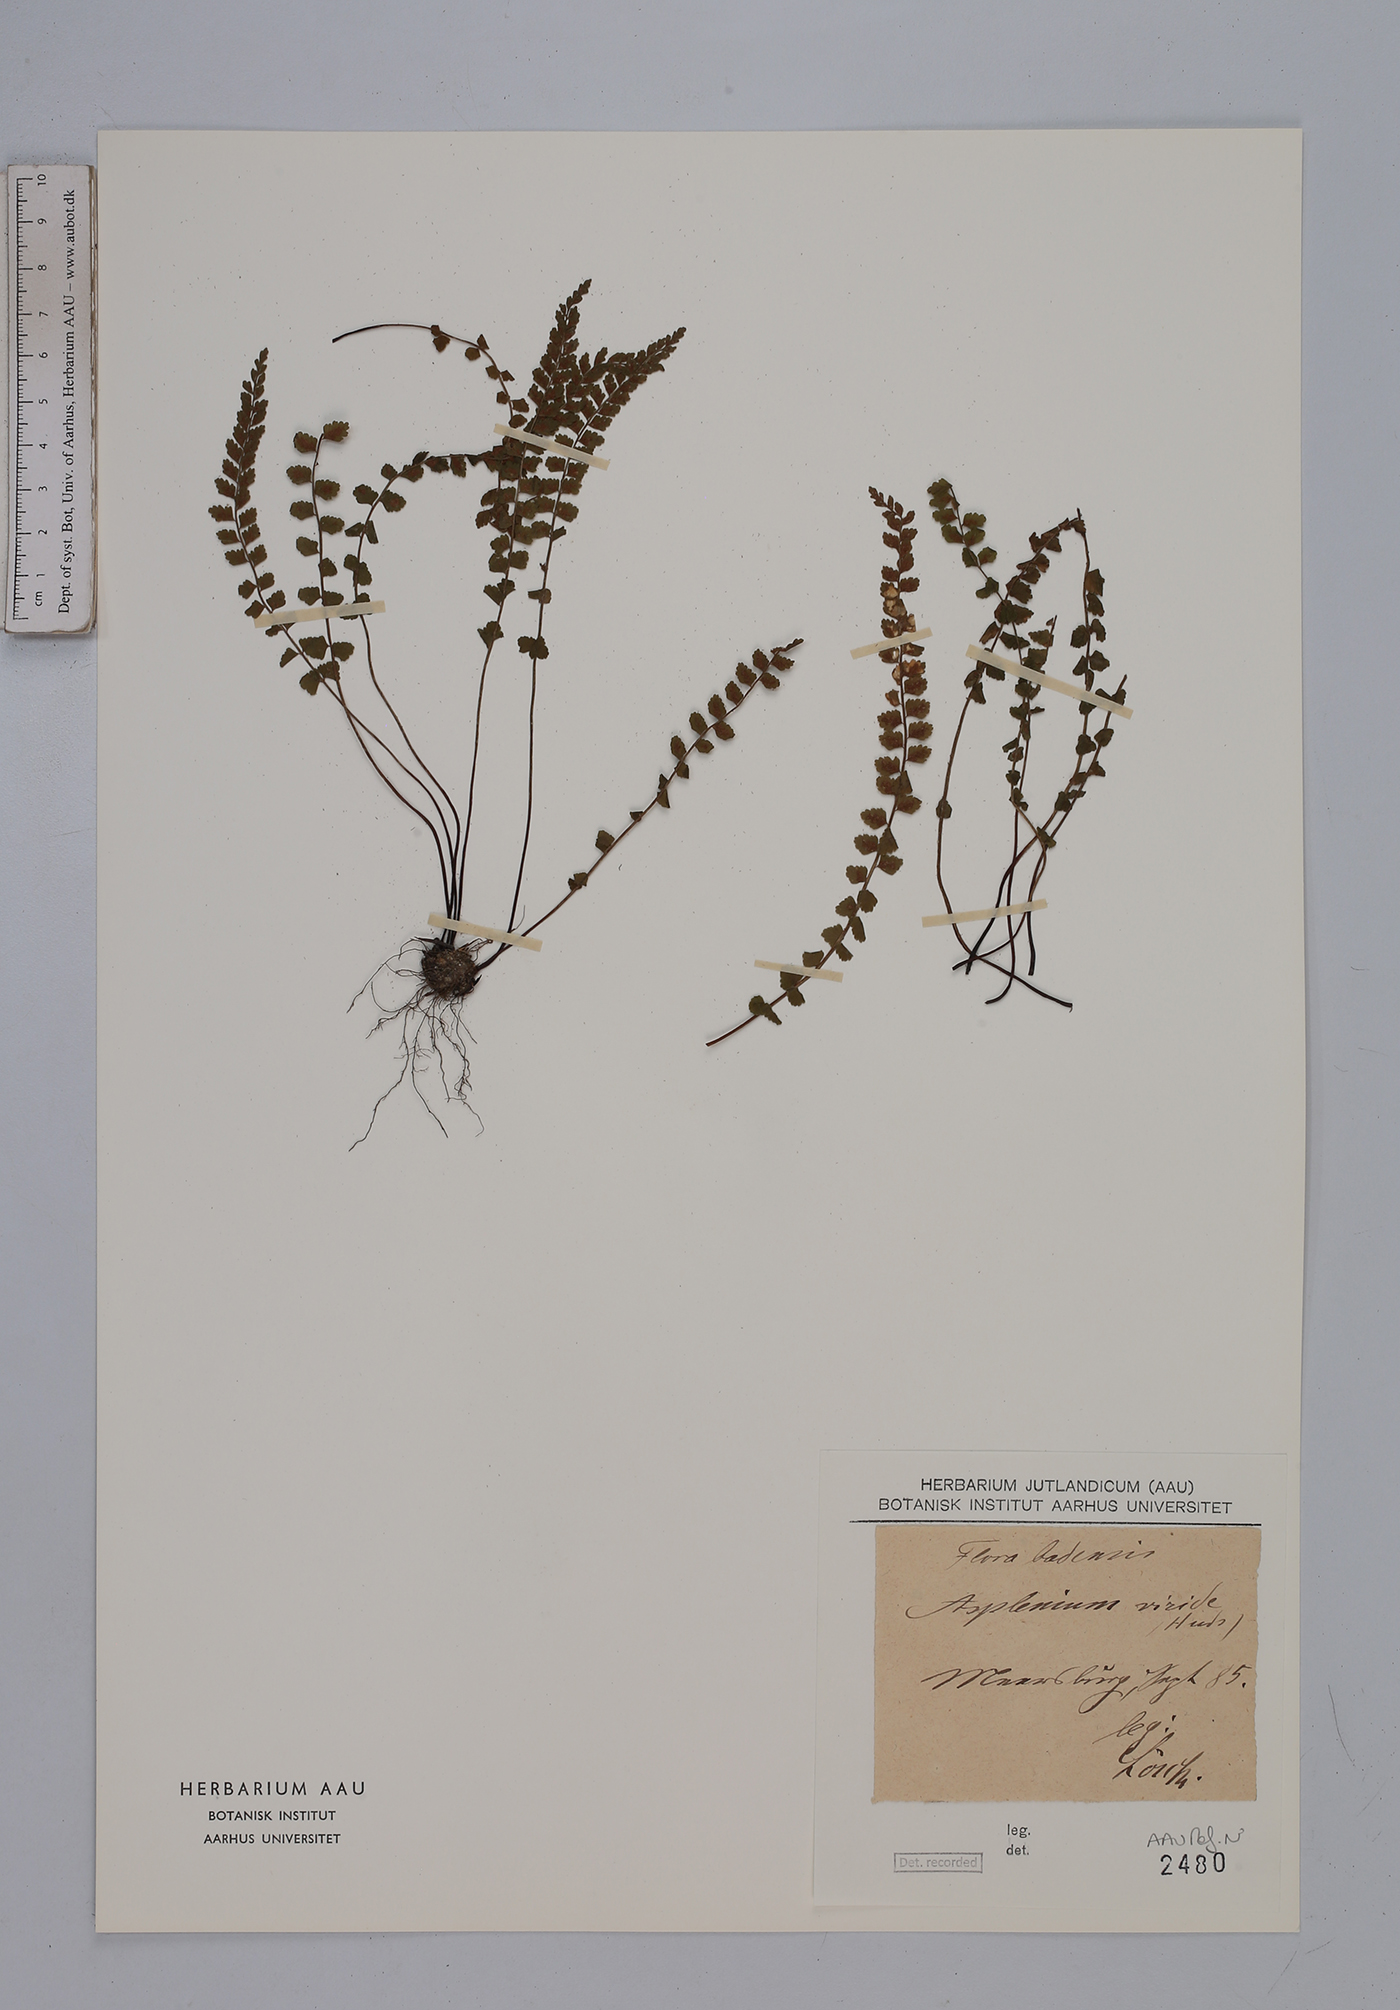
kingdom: Plantae
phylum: Tracheophyta
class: Polypodiopsida
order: Polypodiales
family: Aspleniaceae
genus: Asplenium
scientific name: Asplenium viride
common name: Green spleenwort
